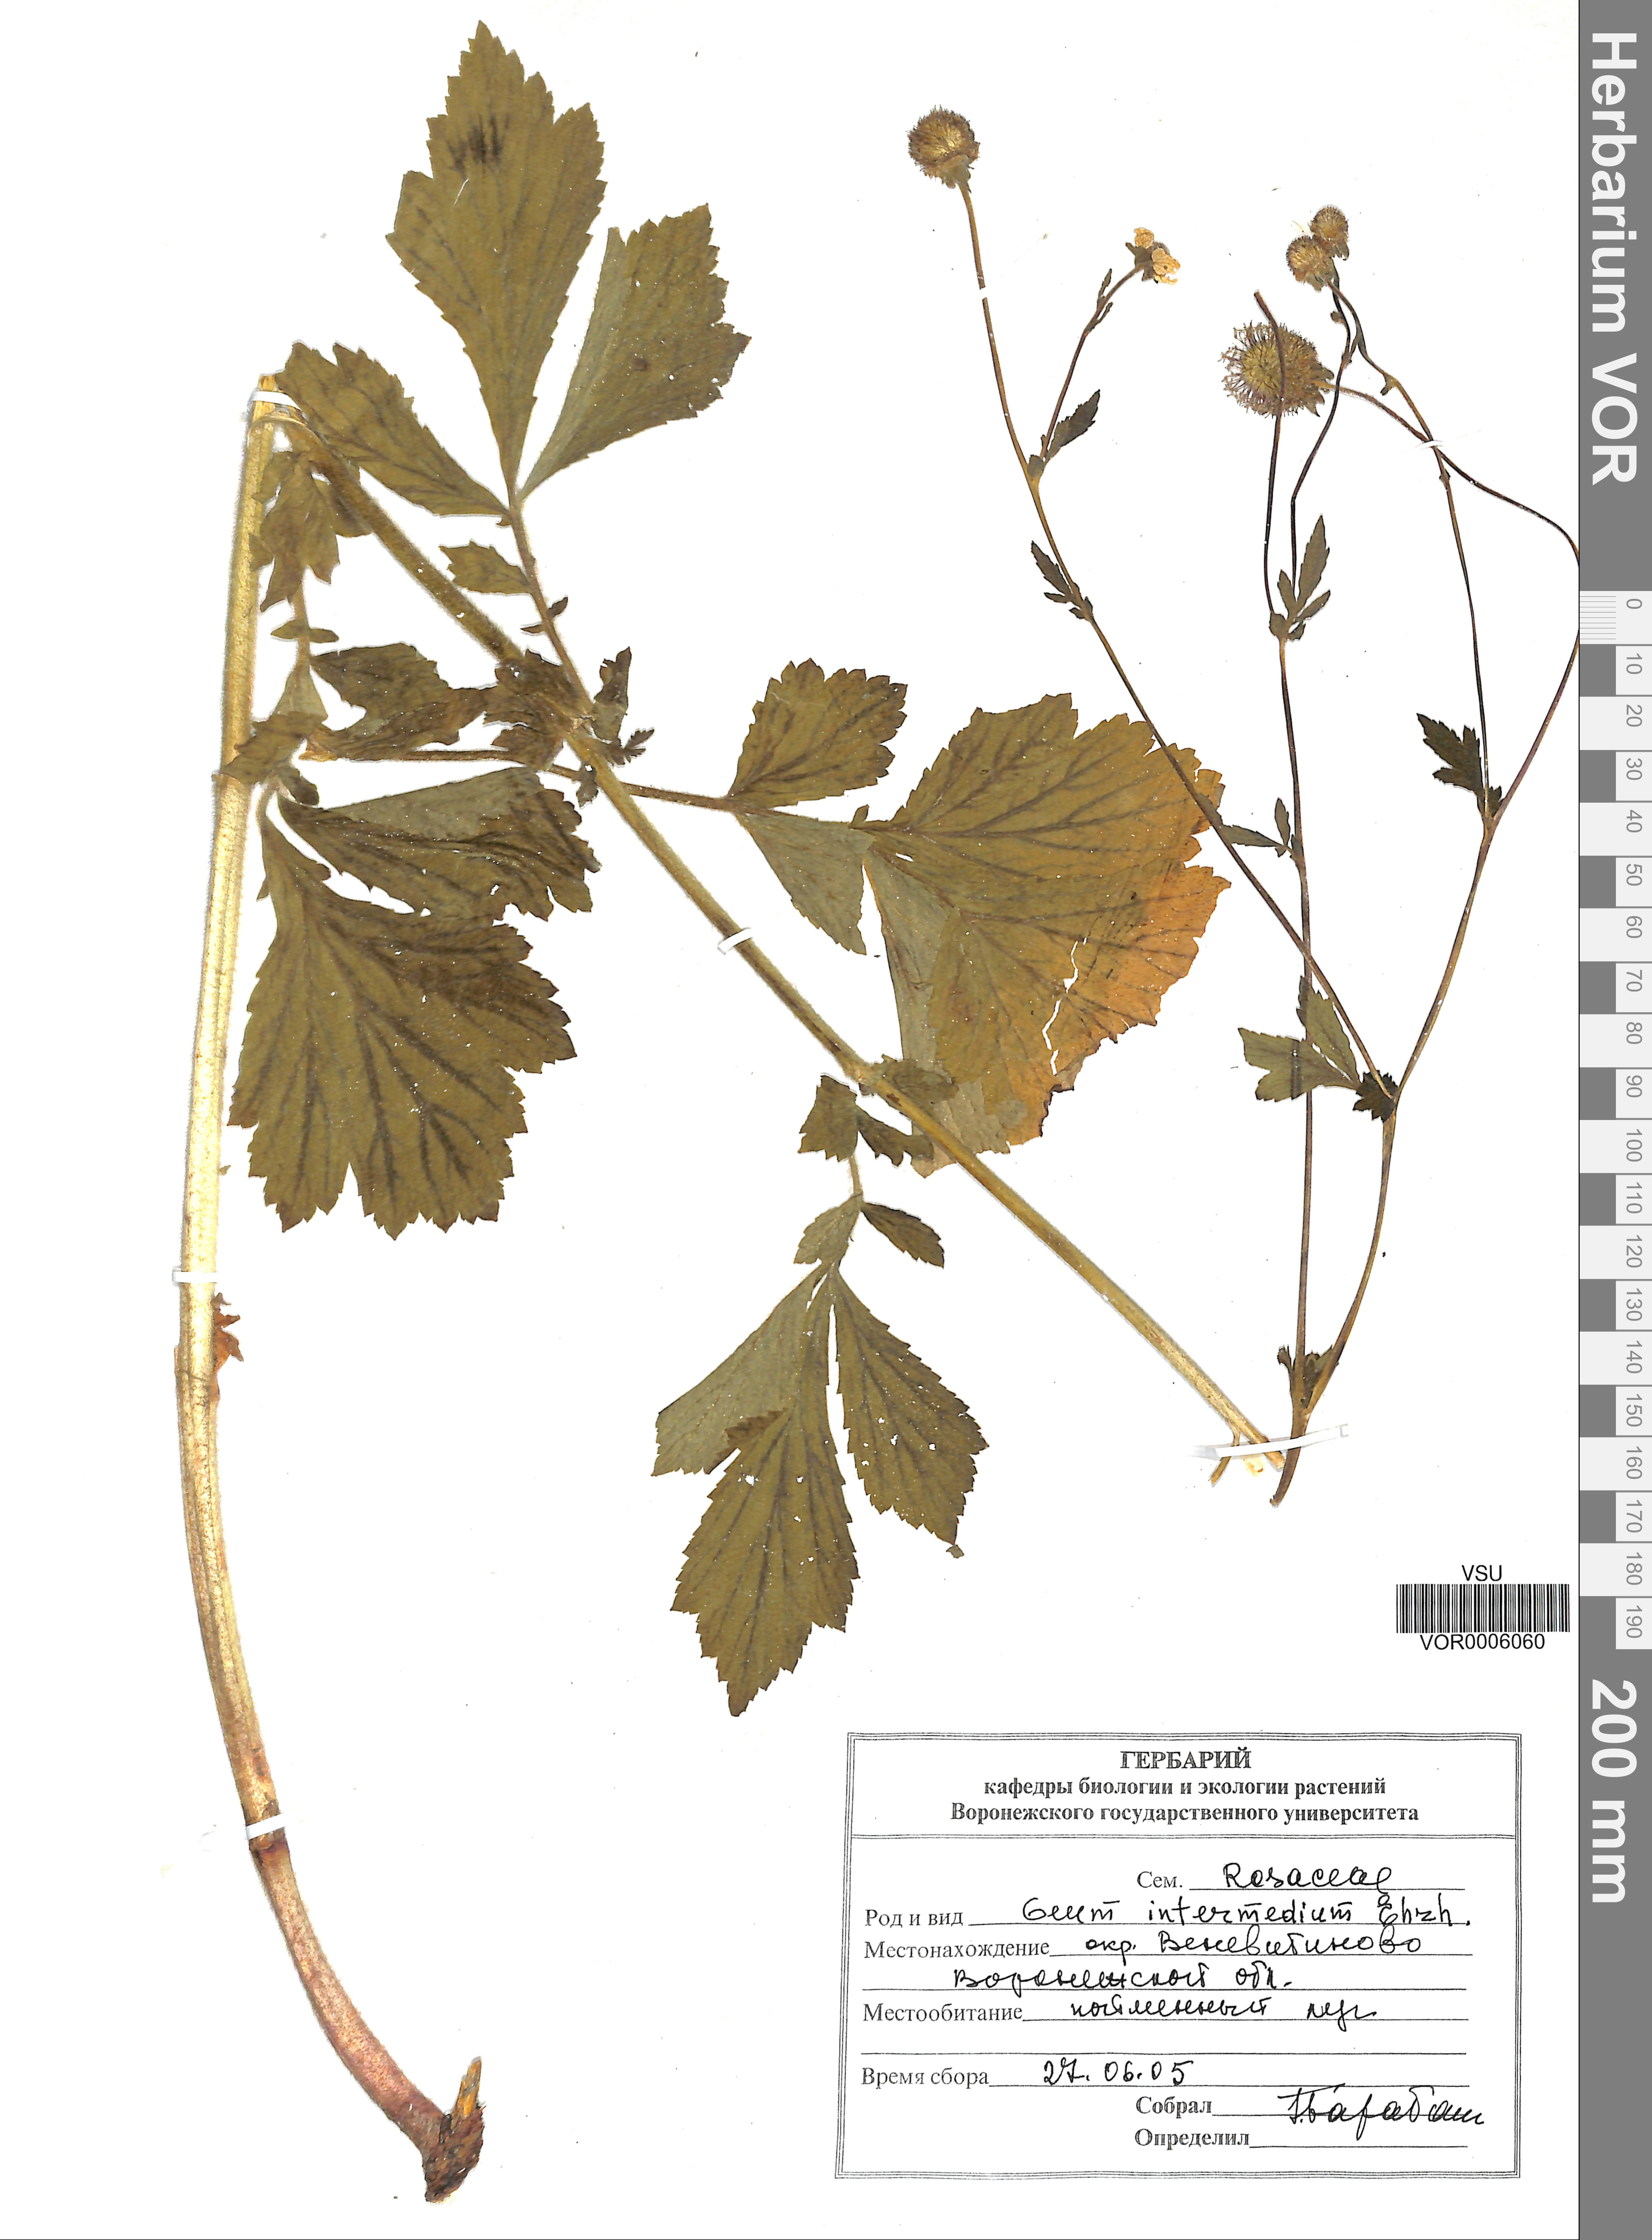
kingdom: Plantae
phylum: Tracheophyta
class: Magnoliopsida
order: Rosales
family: Rosaceae
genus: Geum
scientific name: Geum intermedium
